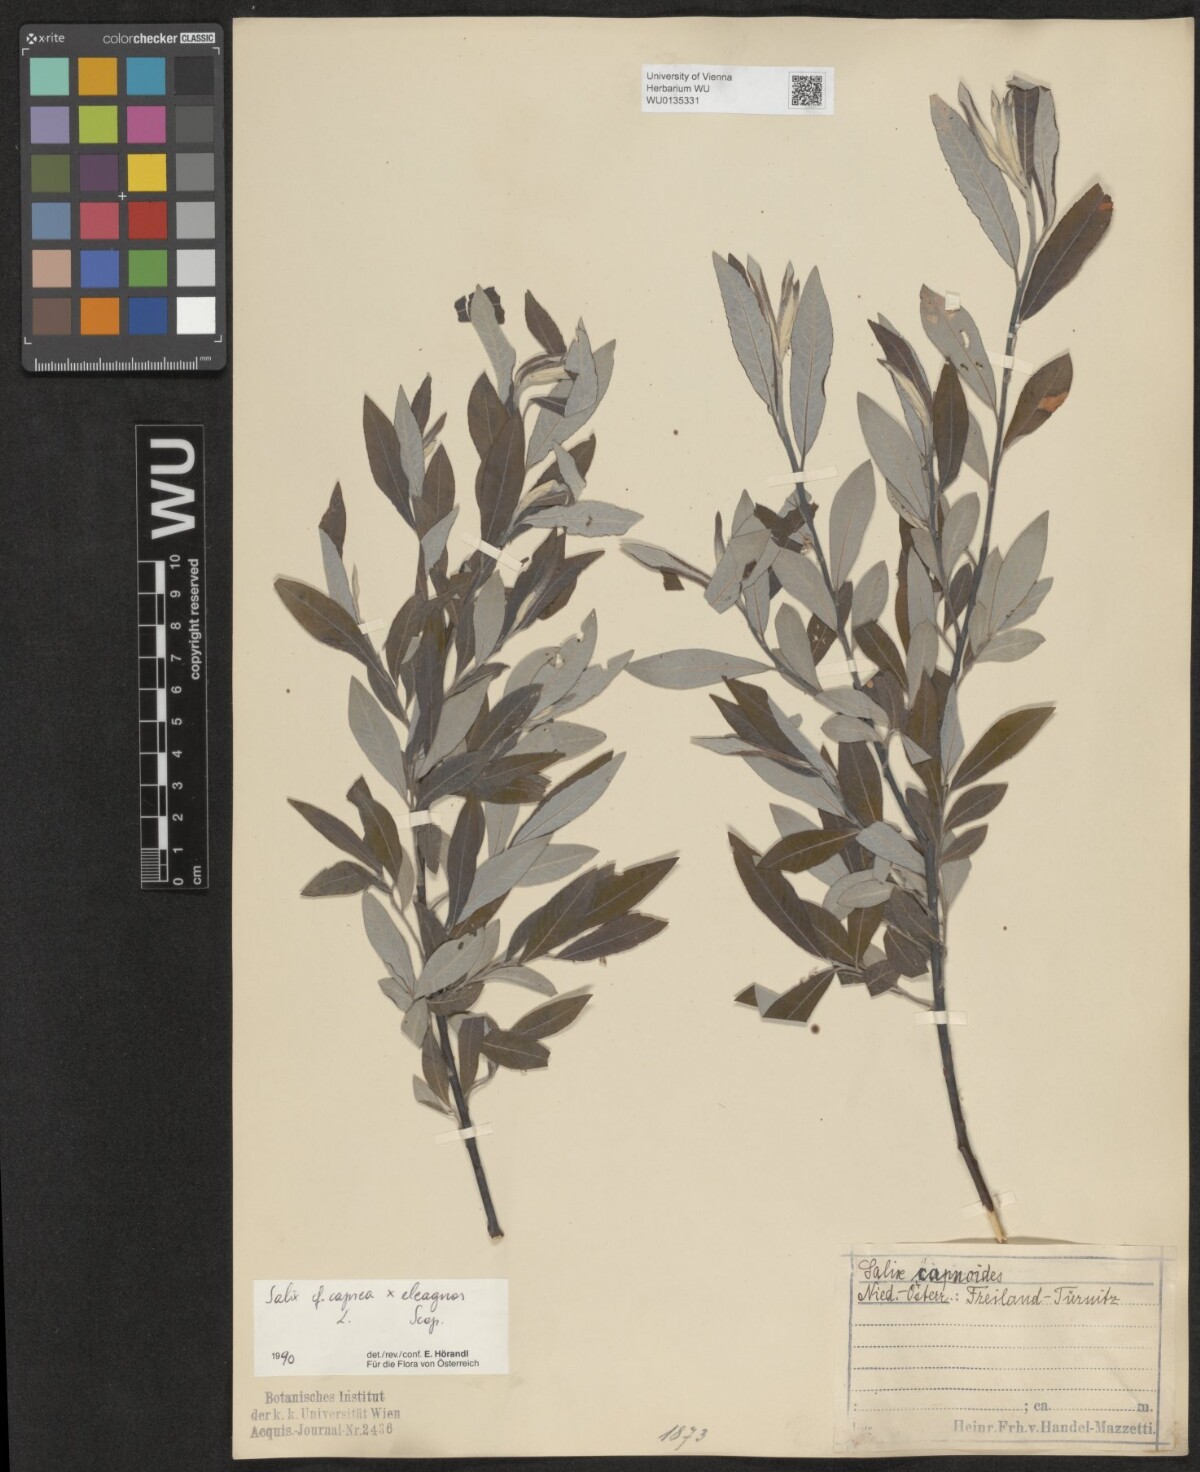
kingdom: Plantae
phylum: Tracheophyta
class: Magnoliopsida
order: Malpighiales
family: Salicaceae
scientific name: Salicaceae
